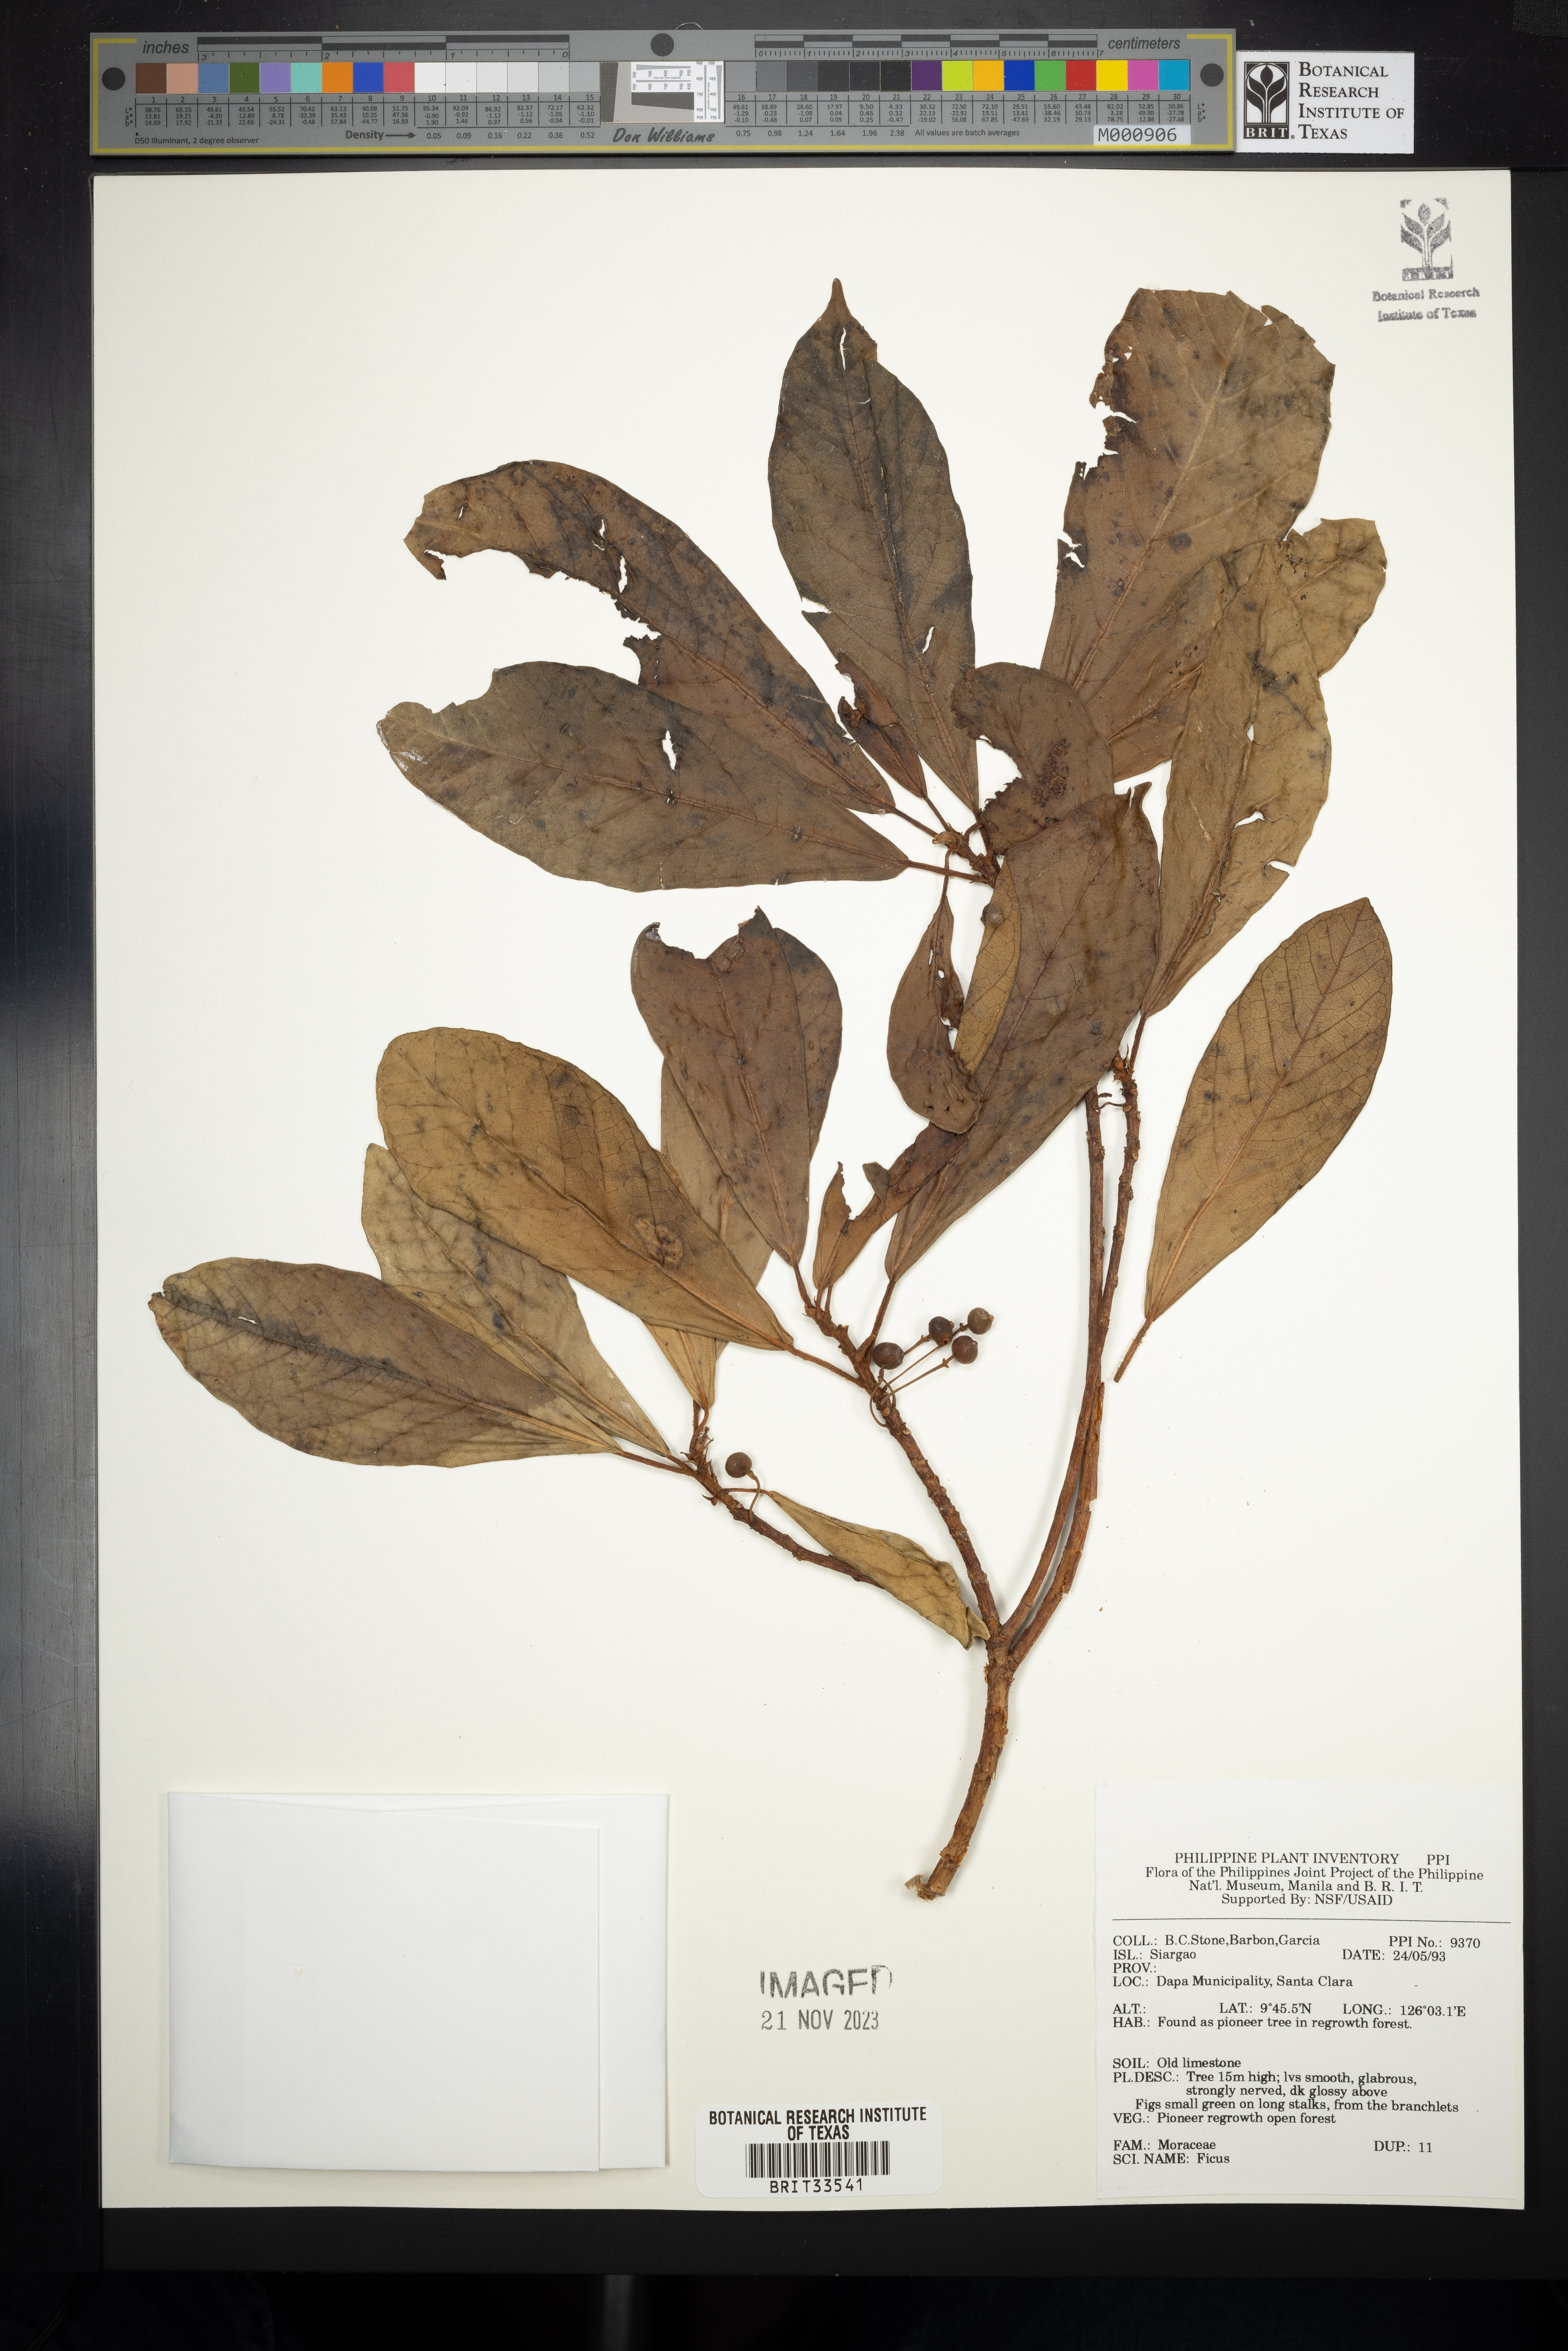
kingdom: Plantae
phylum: Tracheophyta
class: Magnoliopsida
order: Rosales
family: Moraceae
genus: Ficus
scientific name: Ficus
